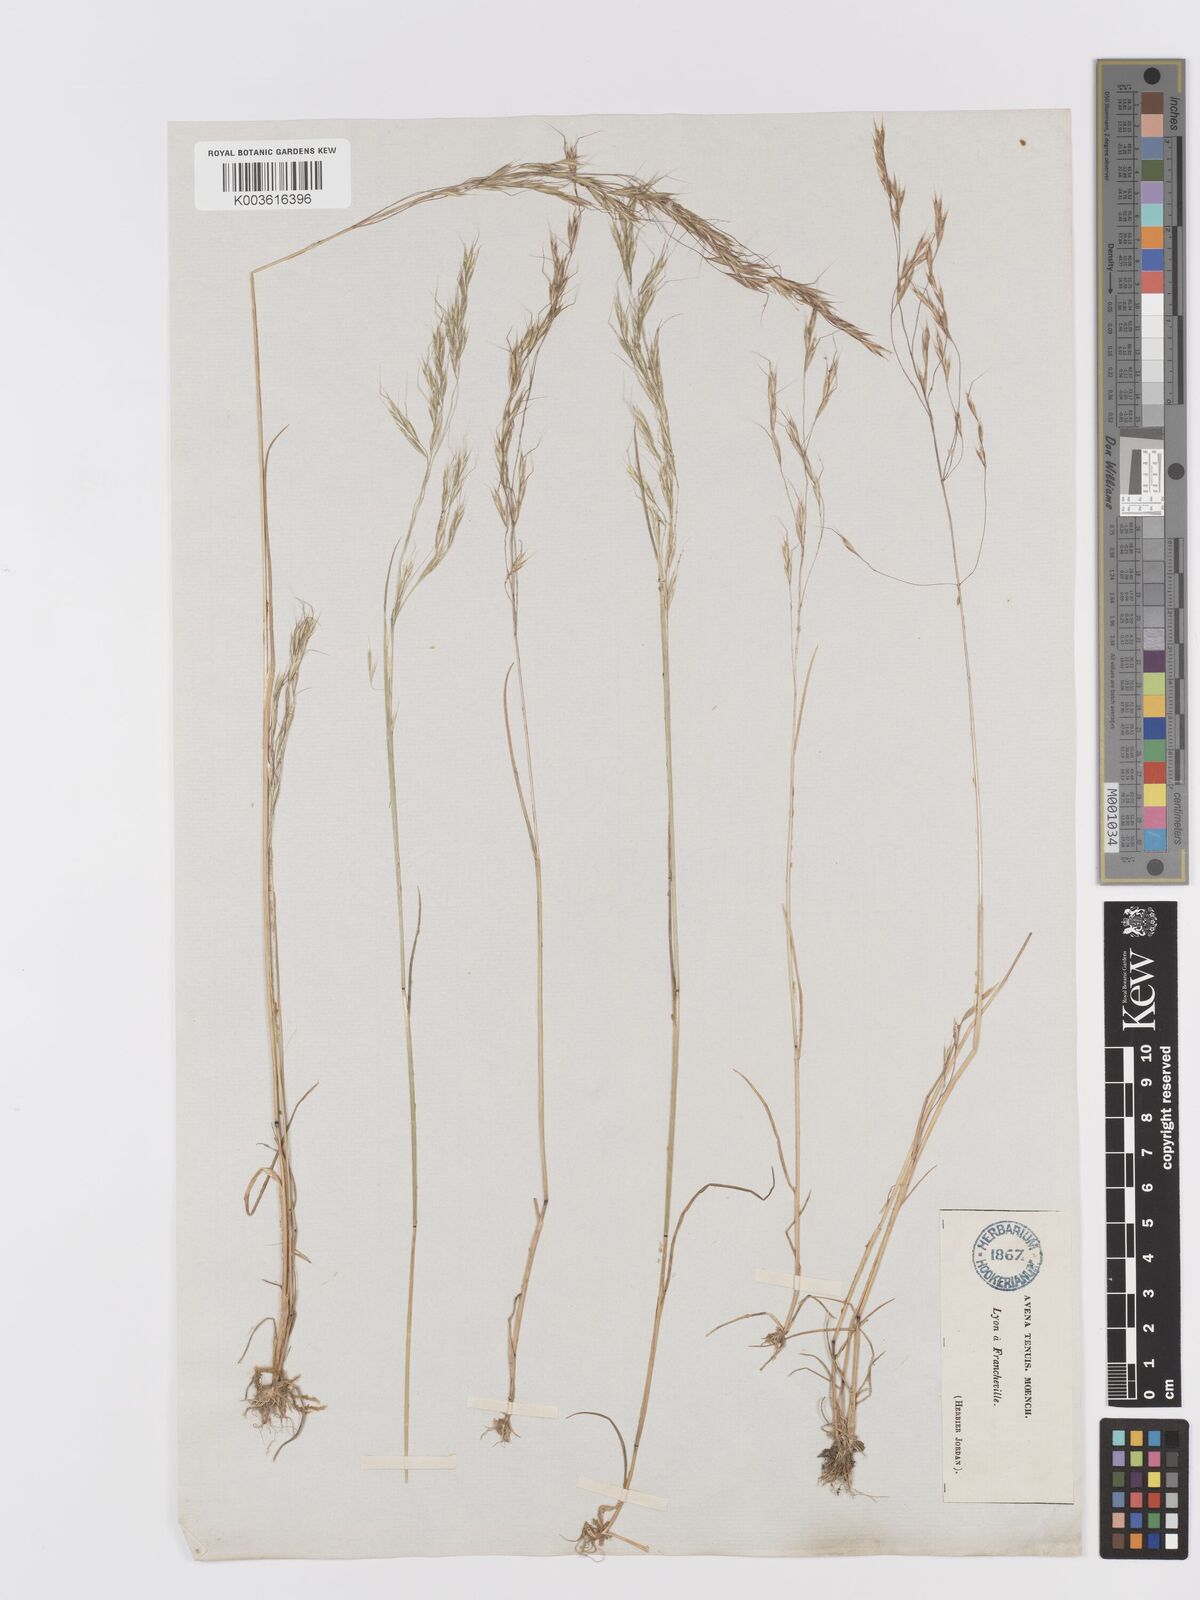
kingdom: Plantae
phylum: Tracheophyta
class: Liliopsida
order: Poales
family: Poaceae
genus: Ventenata
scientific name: Ventenata dubia
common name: North africa grass
